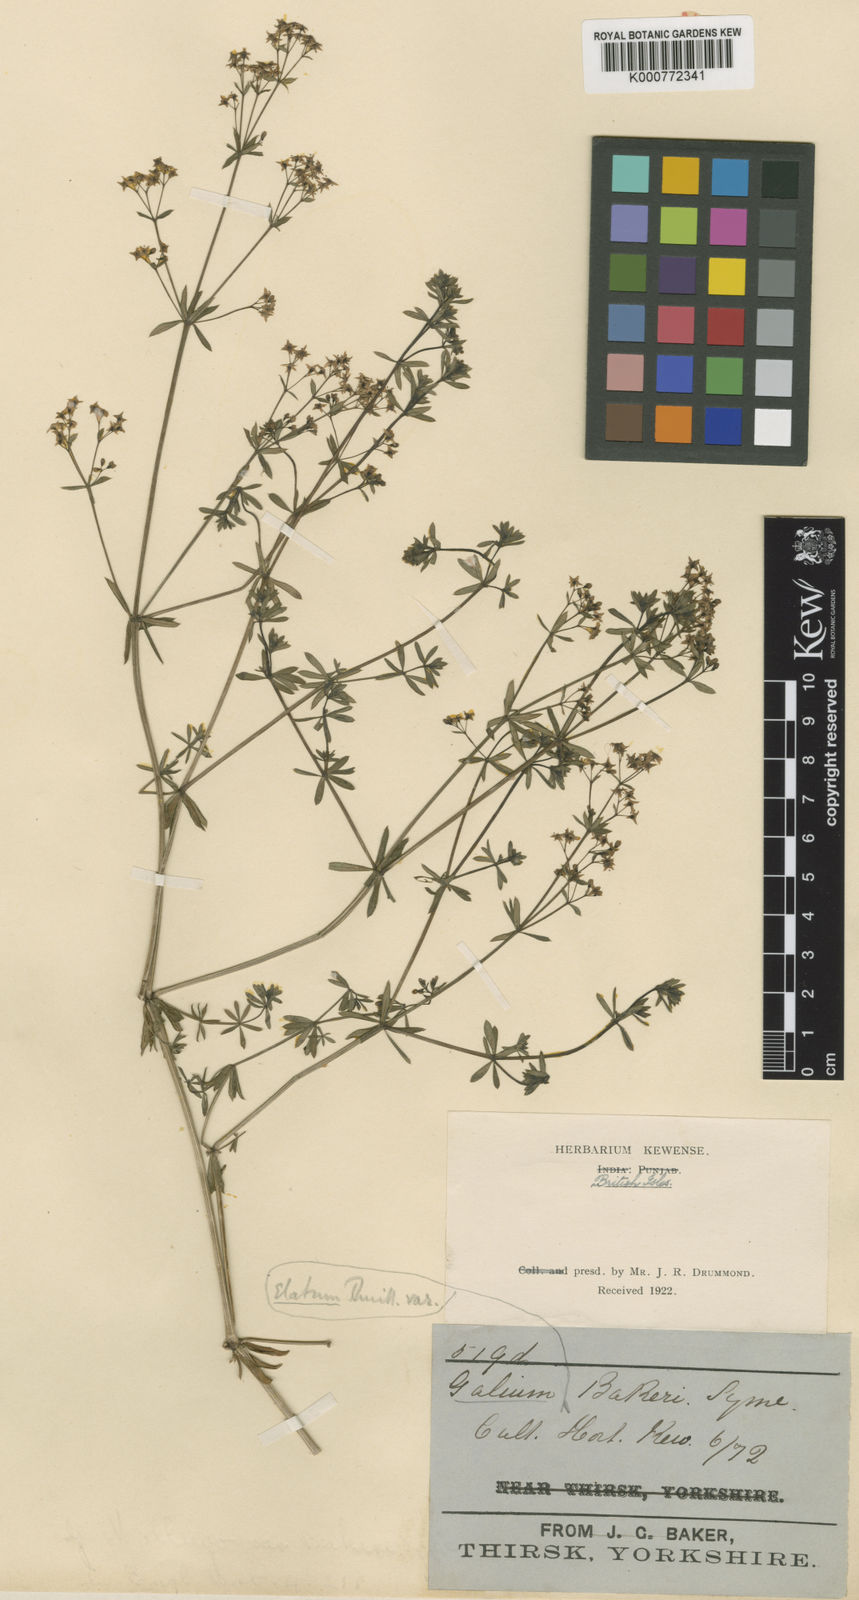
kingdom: Plantae
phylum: Tracheophyta
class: Magnoliopsida
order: Gentianales
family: Rubiaceae
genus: Galium
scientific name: Galium mollugo
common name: Hedge bedstraw
